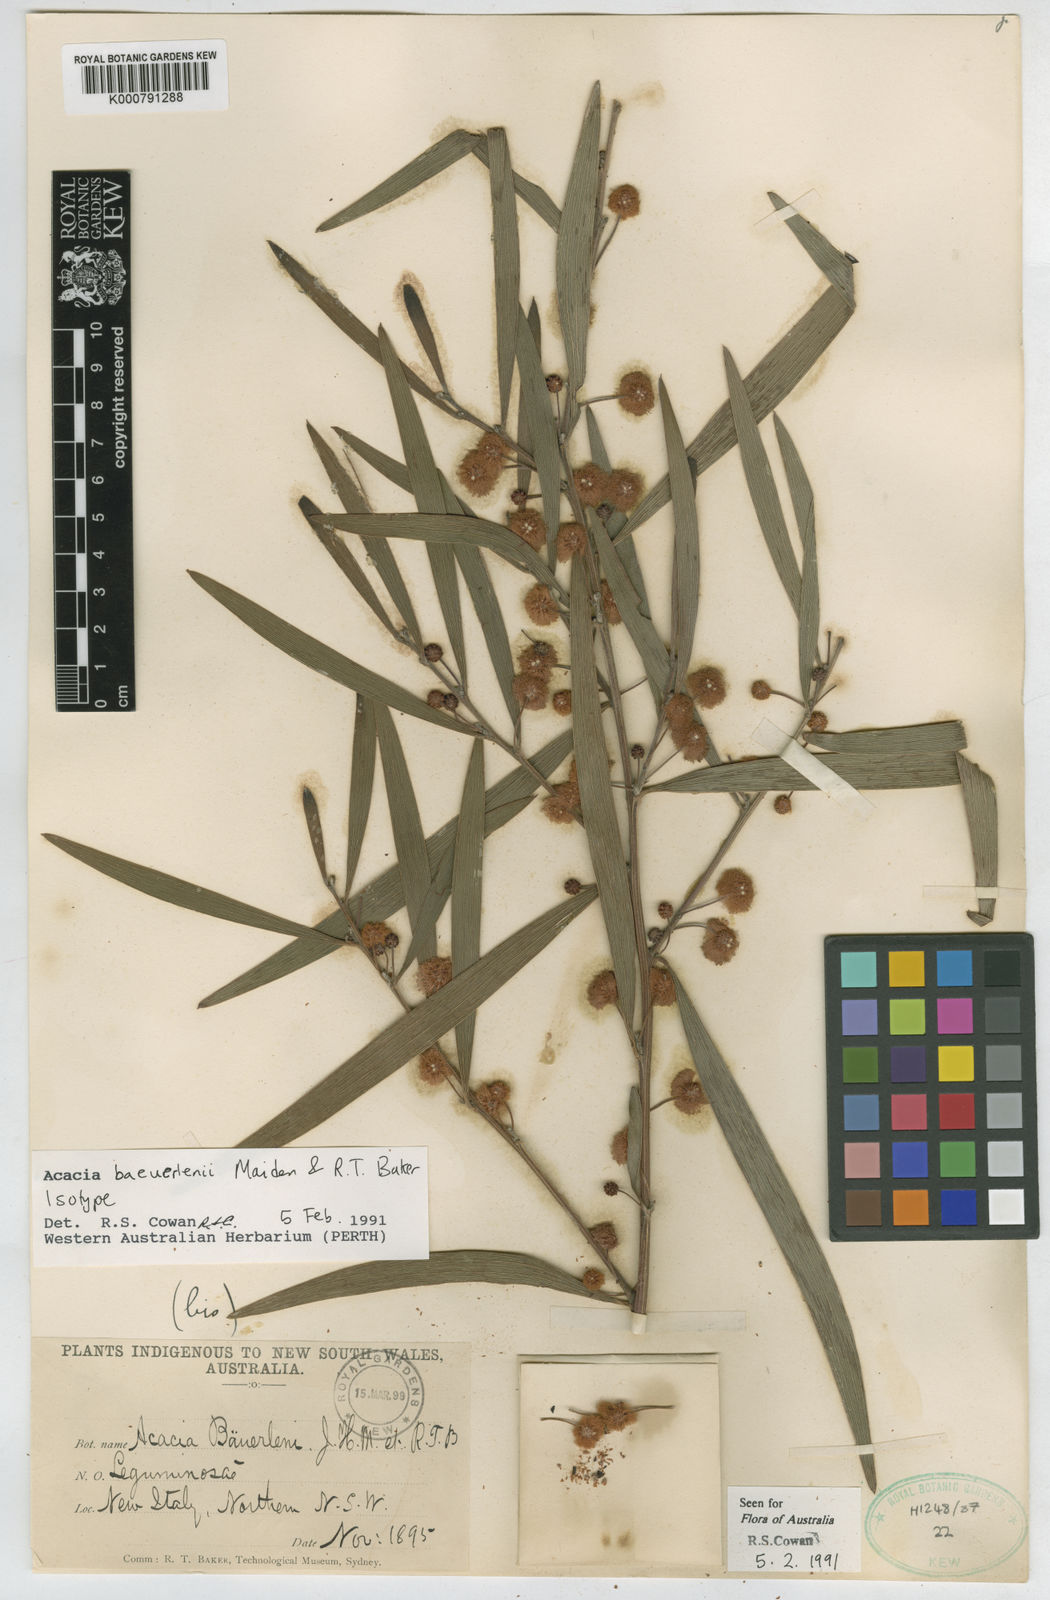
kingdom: Plantae
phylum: Tracheophyta
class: Magnoliopsida
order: Fabales
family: Fabaceae
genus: Acacia
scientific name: Acacia baeuerlenii
